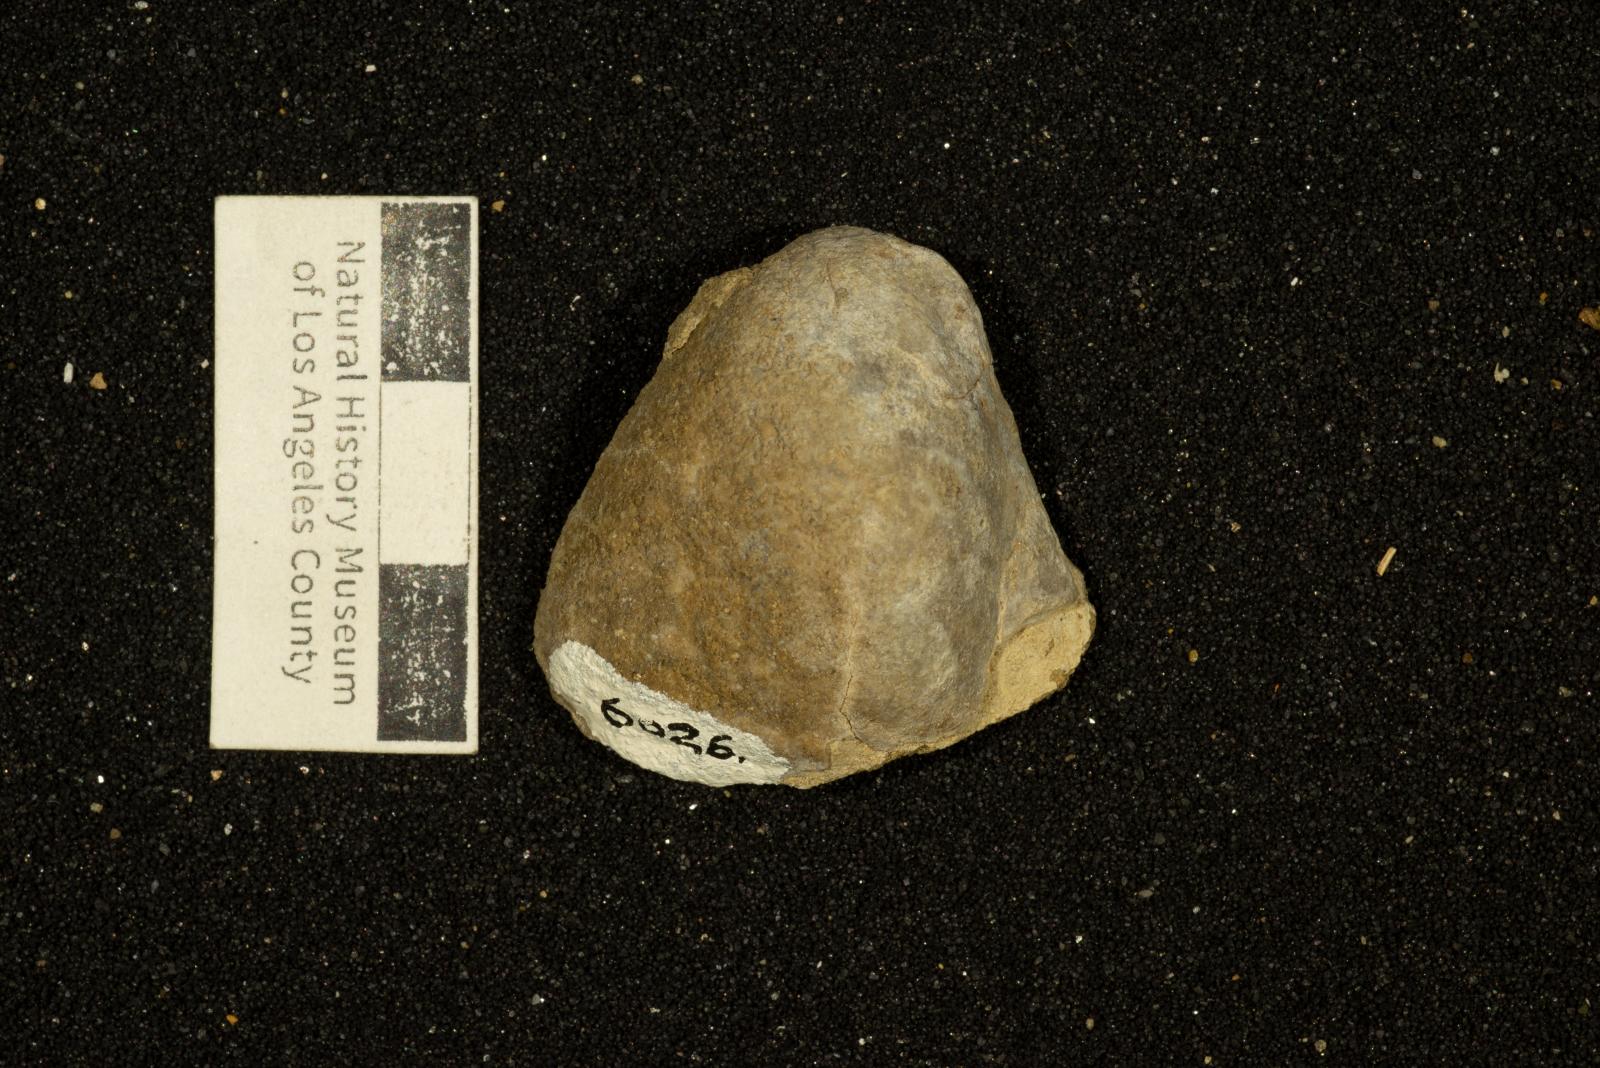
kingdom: Animalia
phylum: Mollusca
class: Bivalvia
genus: Phygraea
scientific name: Phygraea
